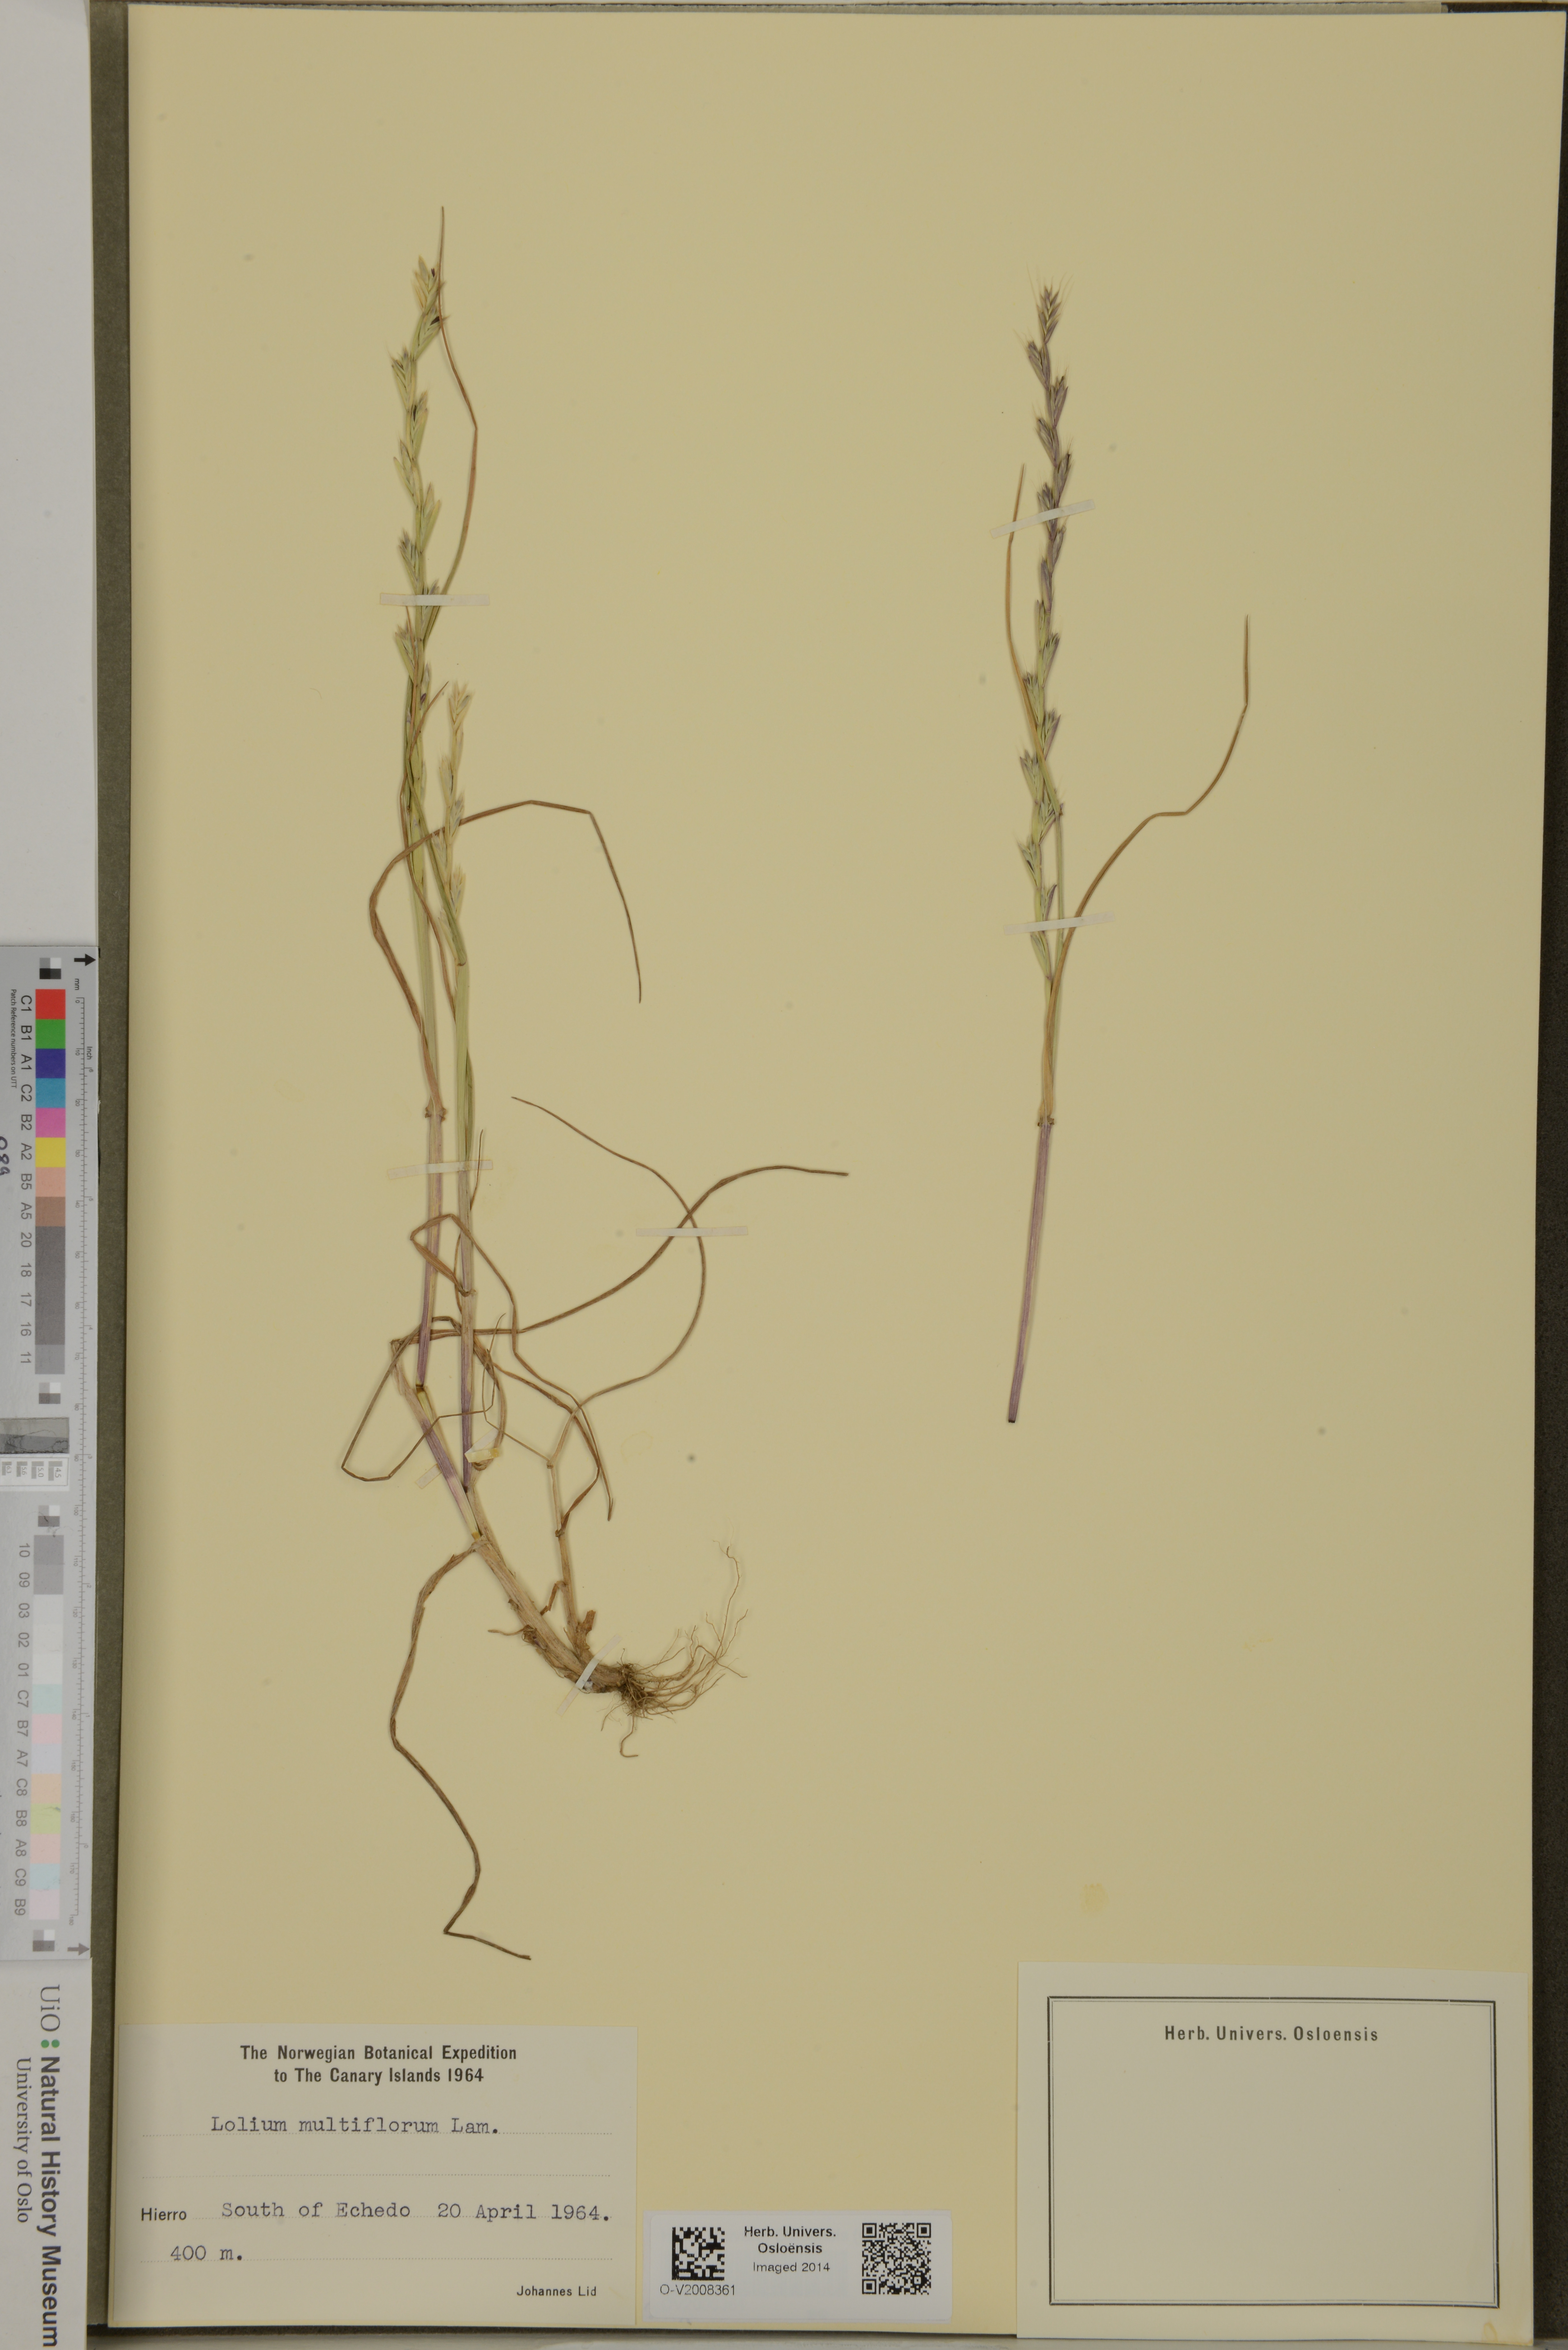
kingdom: Plantae
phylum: Tracheophyta
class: Liliopsida
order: Poales
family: Poaceae
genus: Lolium
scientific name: Lolium multiflorum
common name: Annual ryegrass
